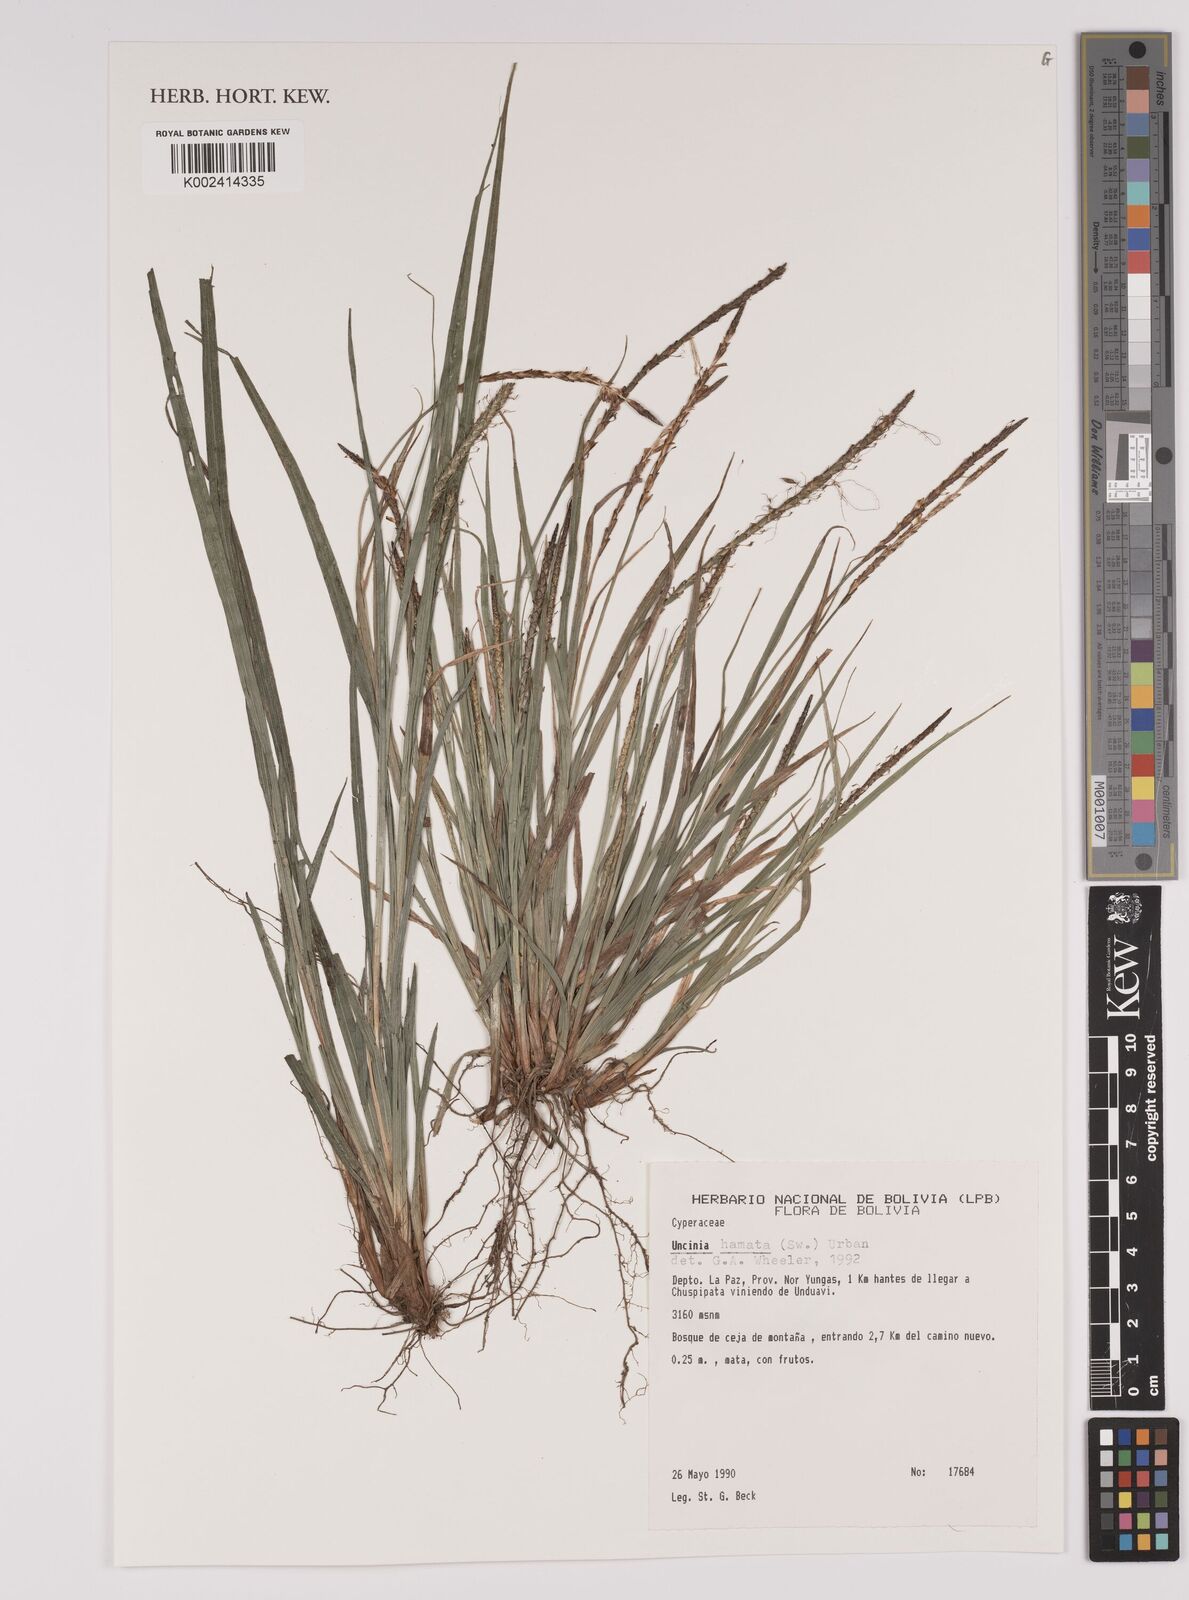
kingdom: Plantae
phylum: Tracheophyta
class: Liliopsida
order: Poales
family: Cyperaceae
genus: Carex
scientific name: Carex hamata
